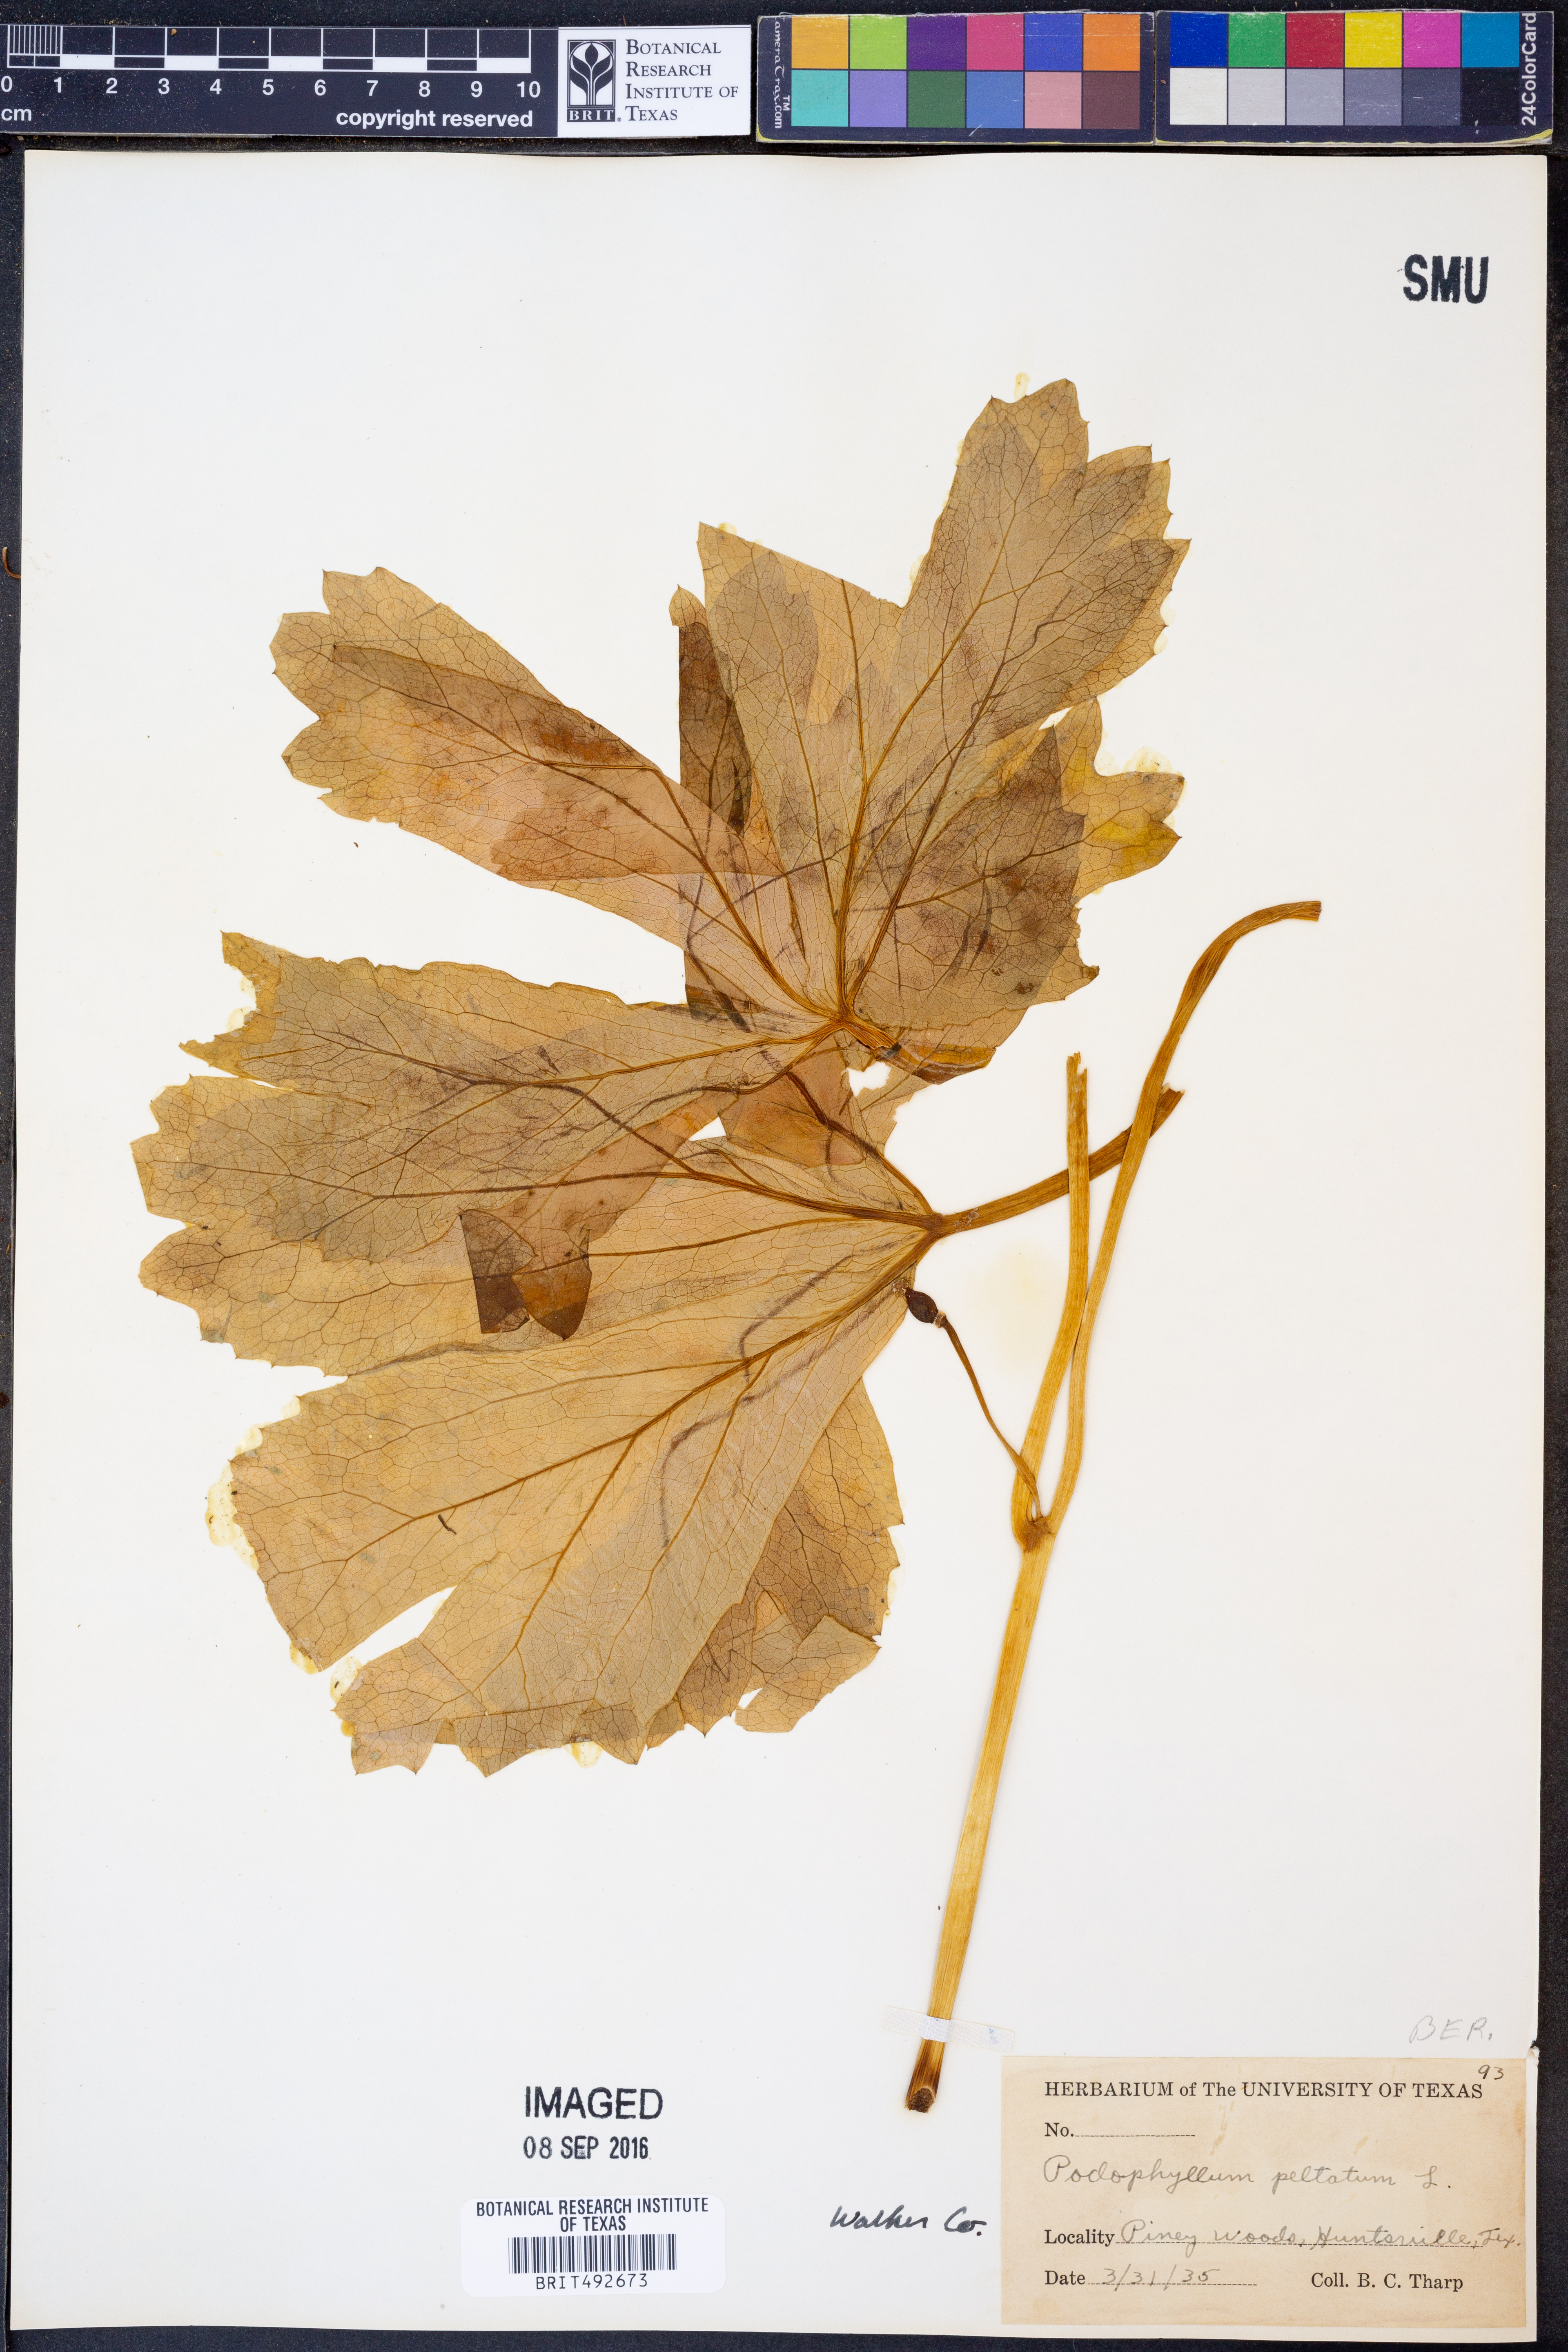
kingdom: Plantae
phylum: Tracheophyta
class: Magnoliopsida
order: Ranunculales
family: Berberidaceae
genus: Podophyllum
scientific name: Podophyllum peltatum
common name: Wild mandrake
